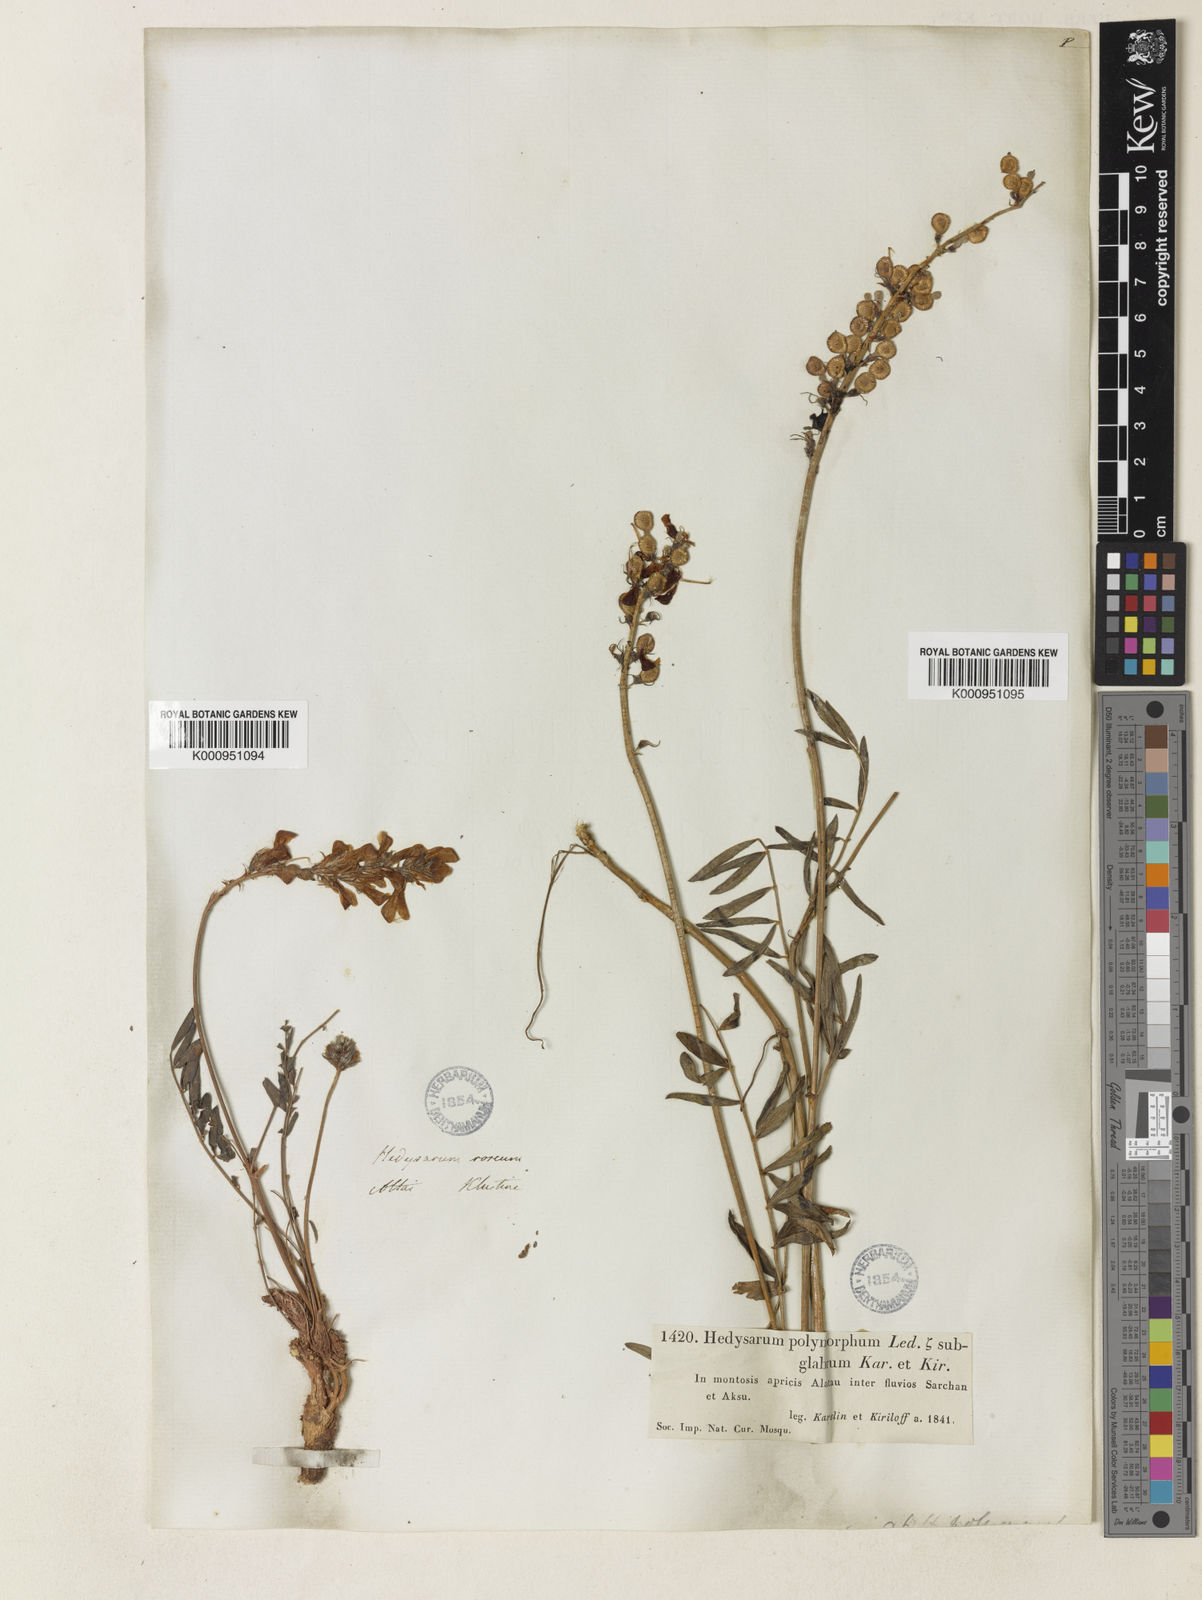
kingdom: Plantae
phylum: Tracheophyta
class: Magnoliopsida
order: Fabales
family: Fabaceae
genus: Hedysarum
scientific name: Hedysarum gmelinii
